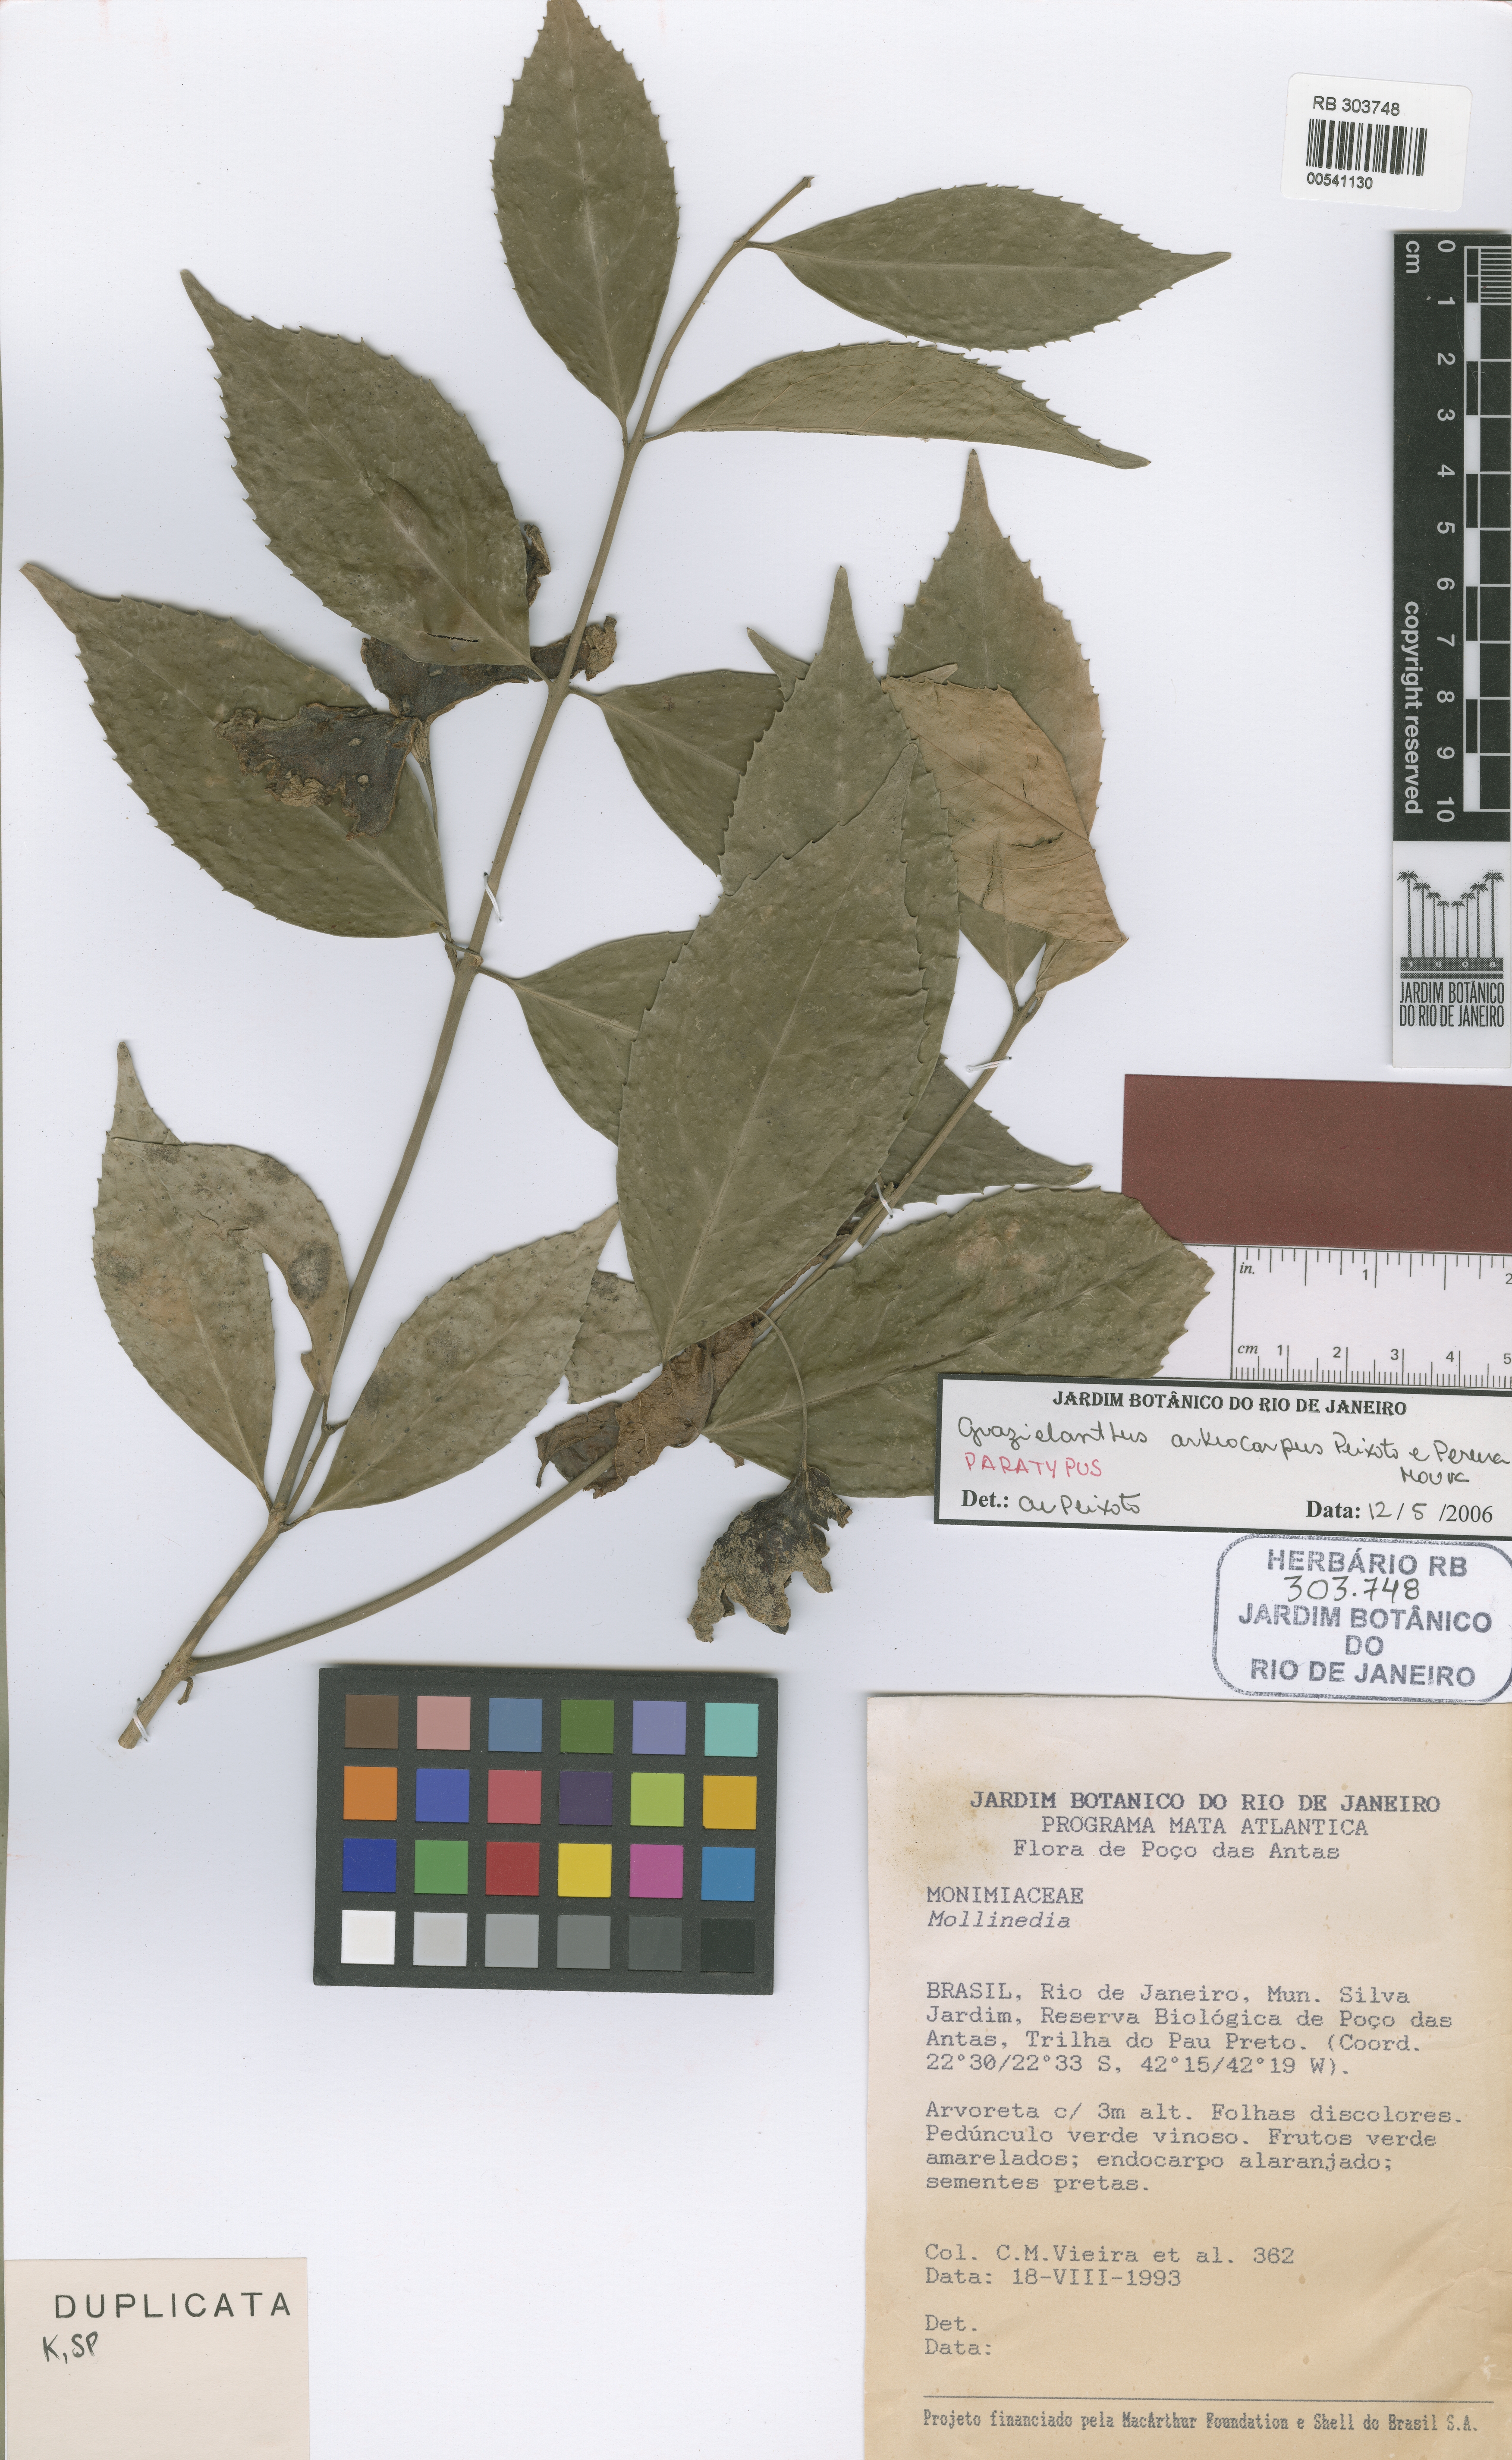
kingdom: Plantae
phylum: Tracheophyta
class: Magnoliopsida
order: Laurales
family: Monimiaceae
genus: Grazielanthus
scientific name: Grazielanthus arkeocarpus
